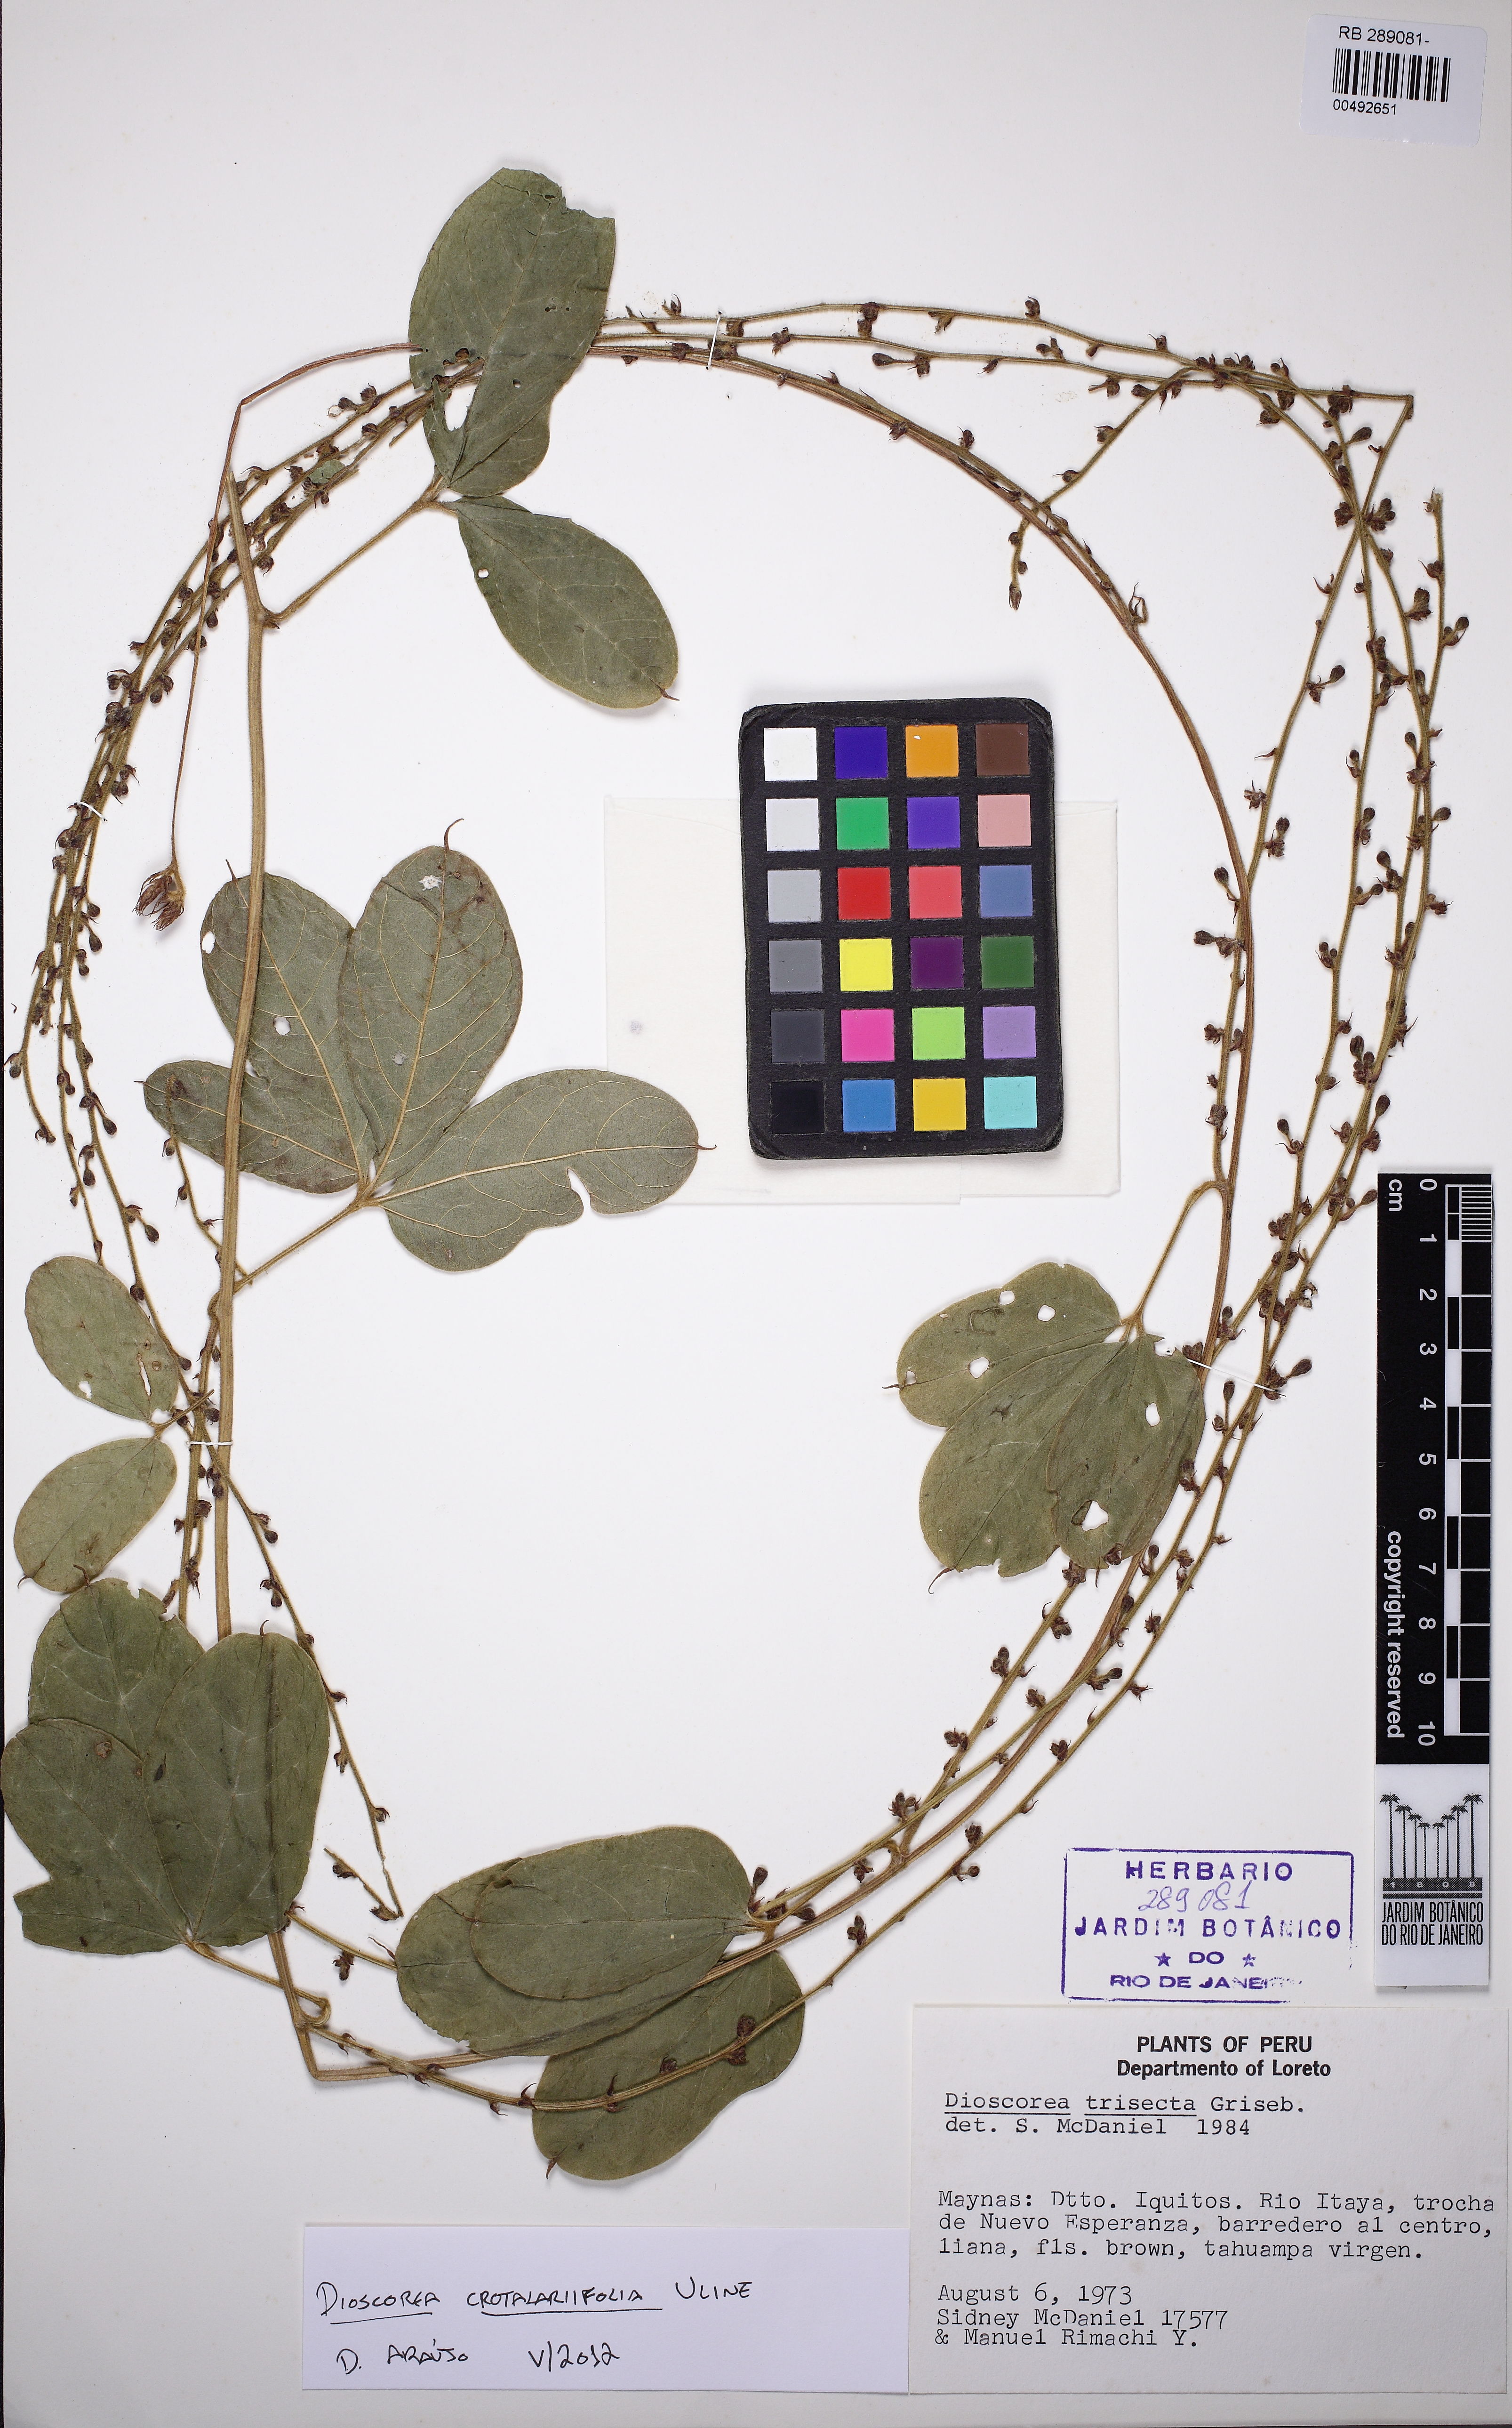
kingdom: Plantae
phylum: Tracheophyta
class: Liliopsida
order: Dioscoreales
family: Dioscoreaceae
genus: Dioscorea
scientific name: Dioscorea crotalariifolia
